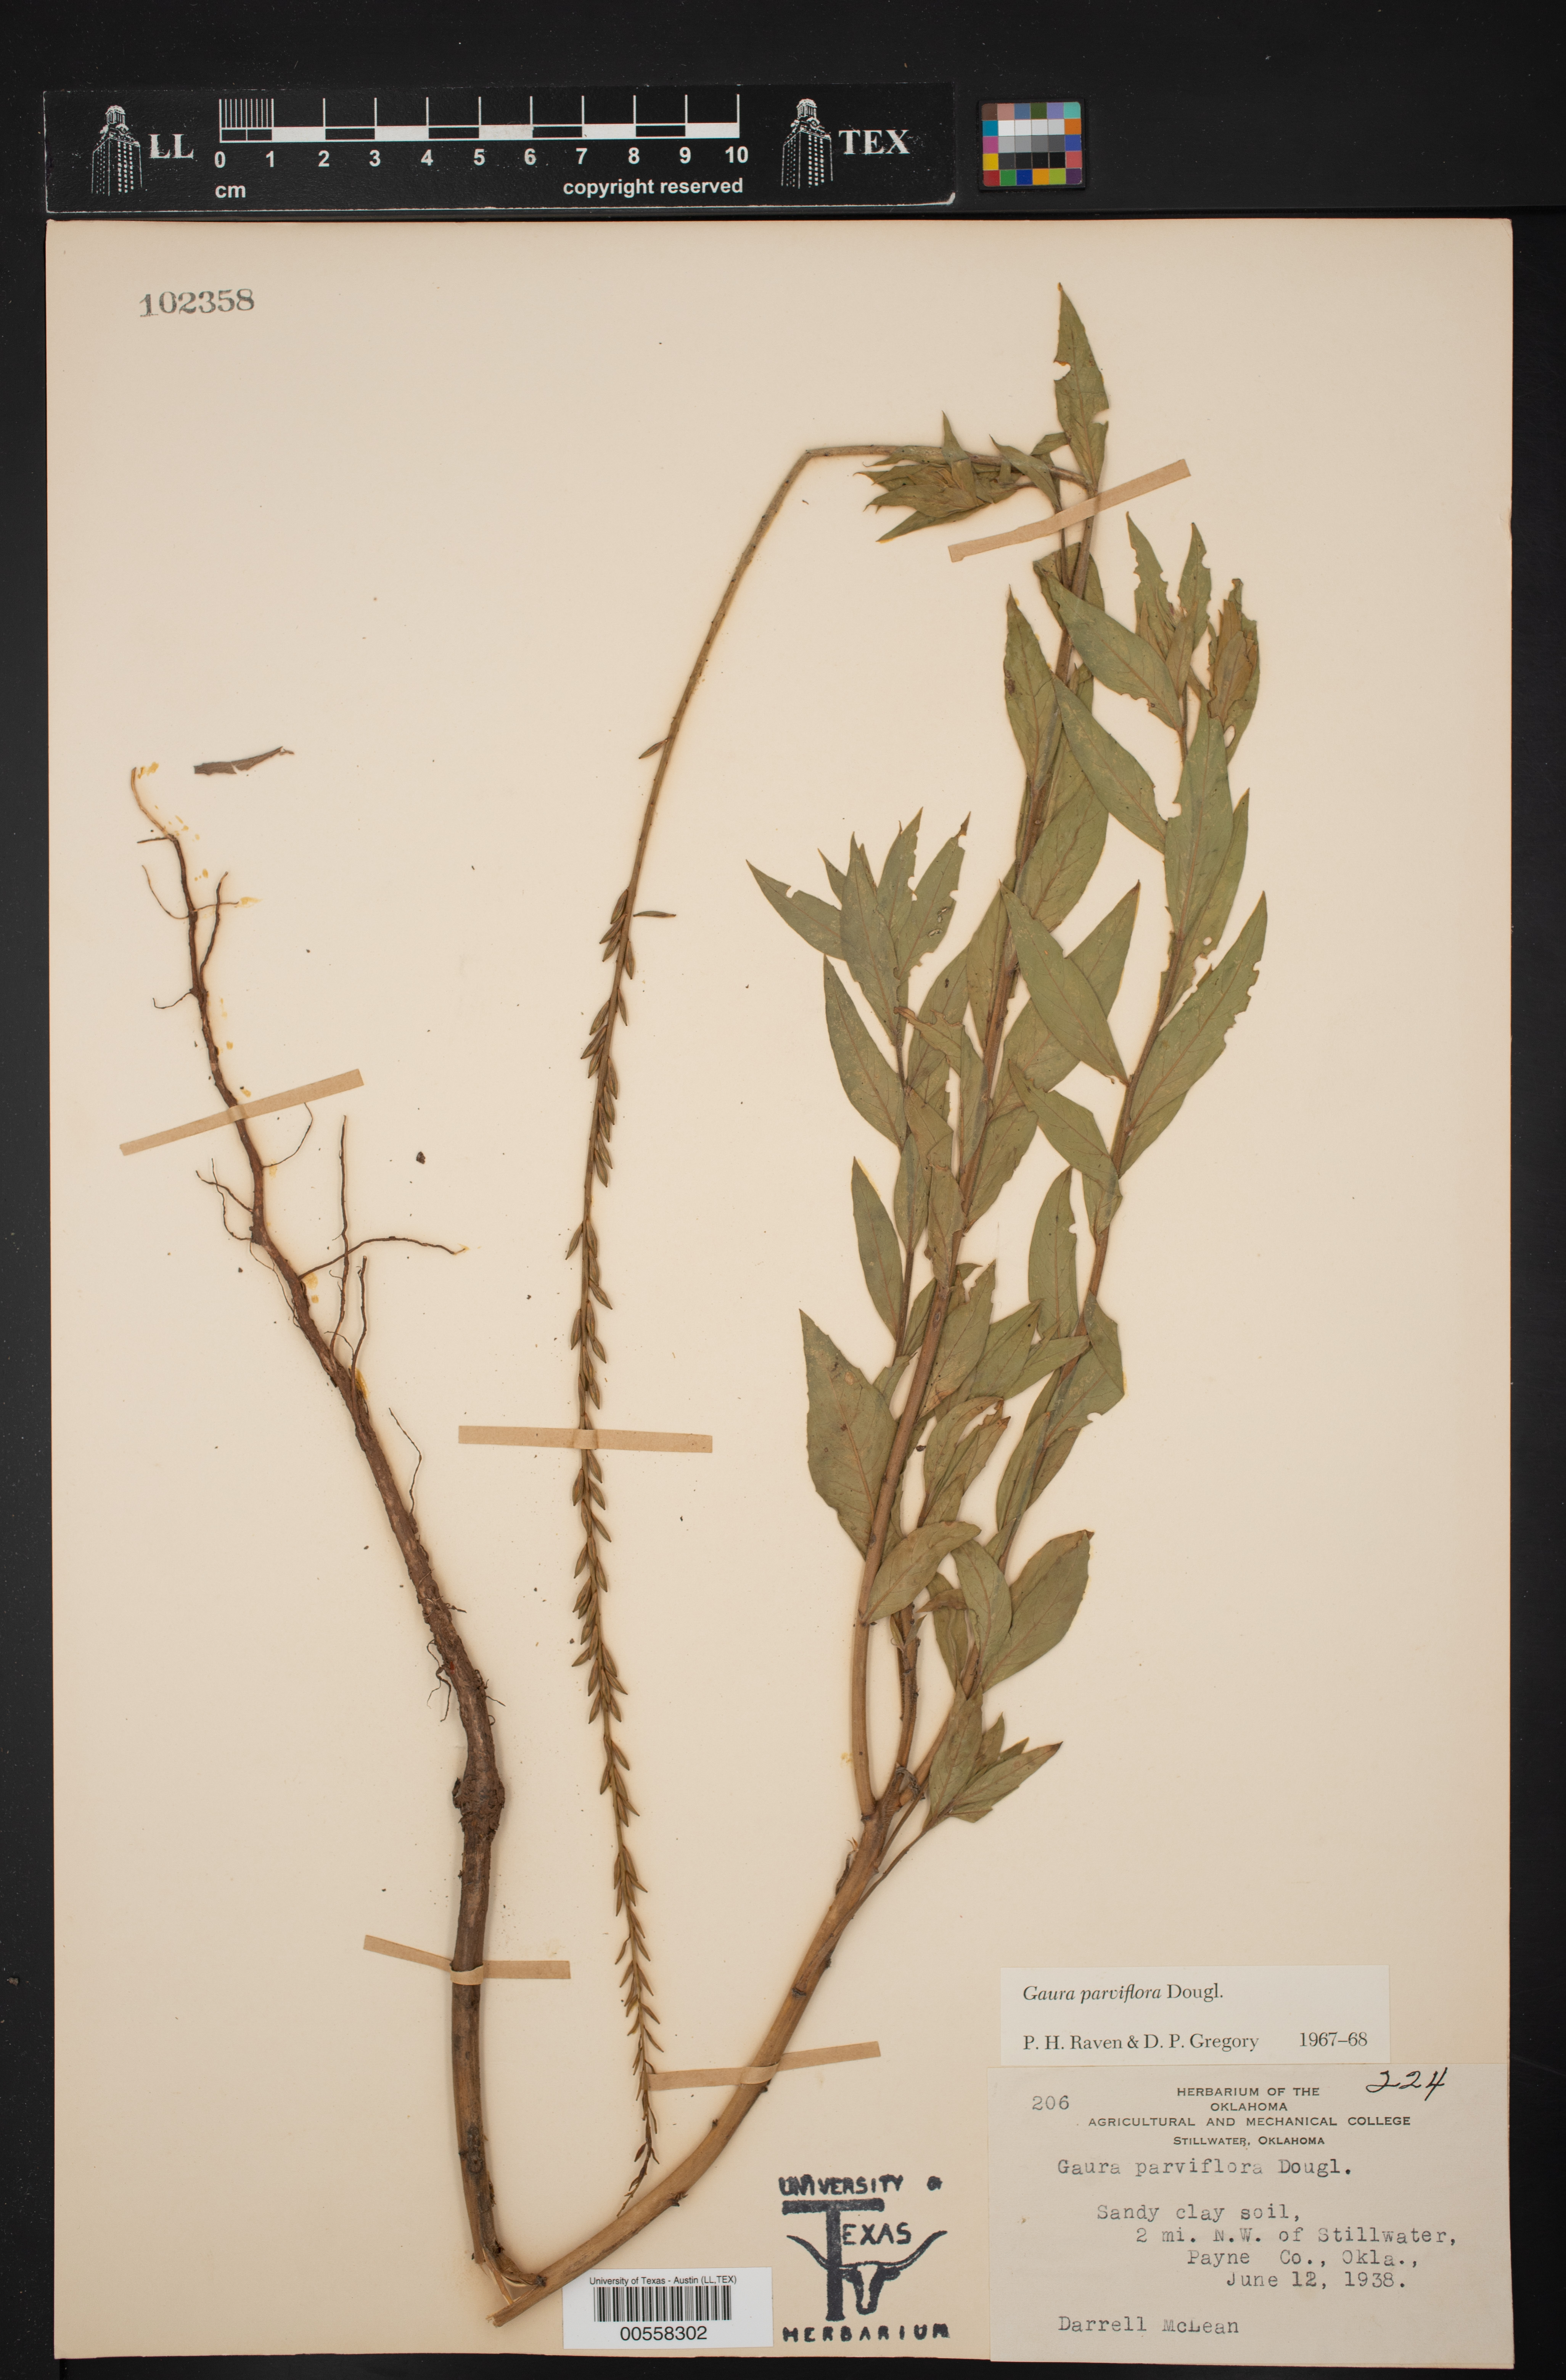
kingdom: Plantae
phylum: Tracheophyta
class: Magnoliopsida
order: Myrtales
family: Onagraceae
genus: Oenothera
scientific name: Oenothera curtiflora
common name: Velvetweed
